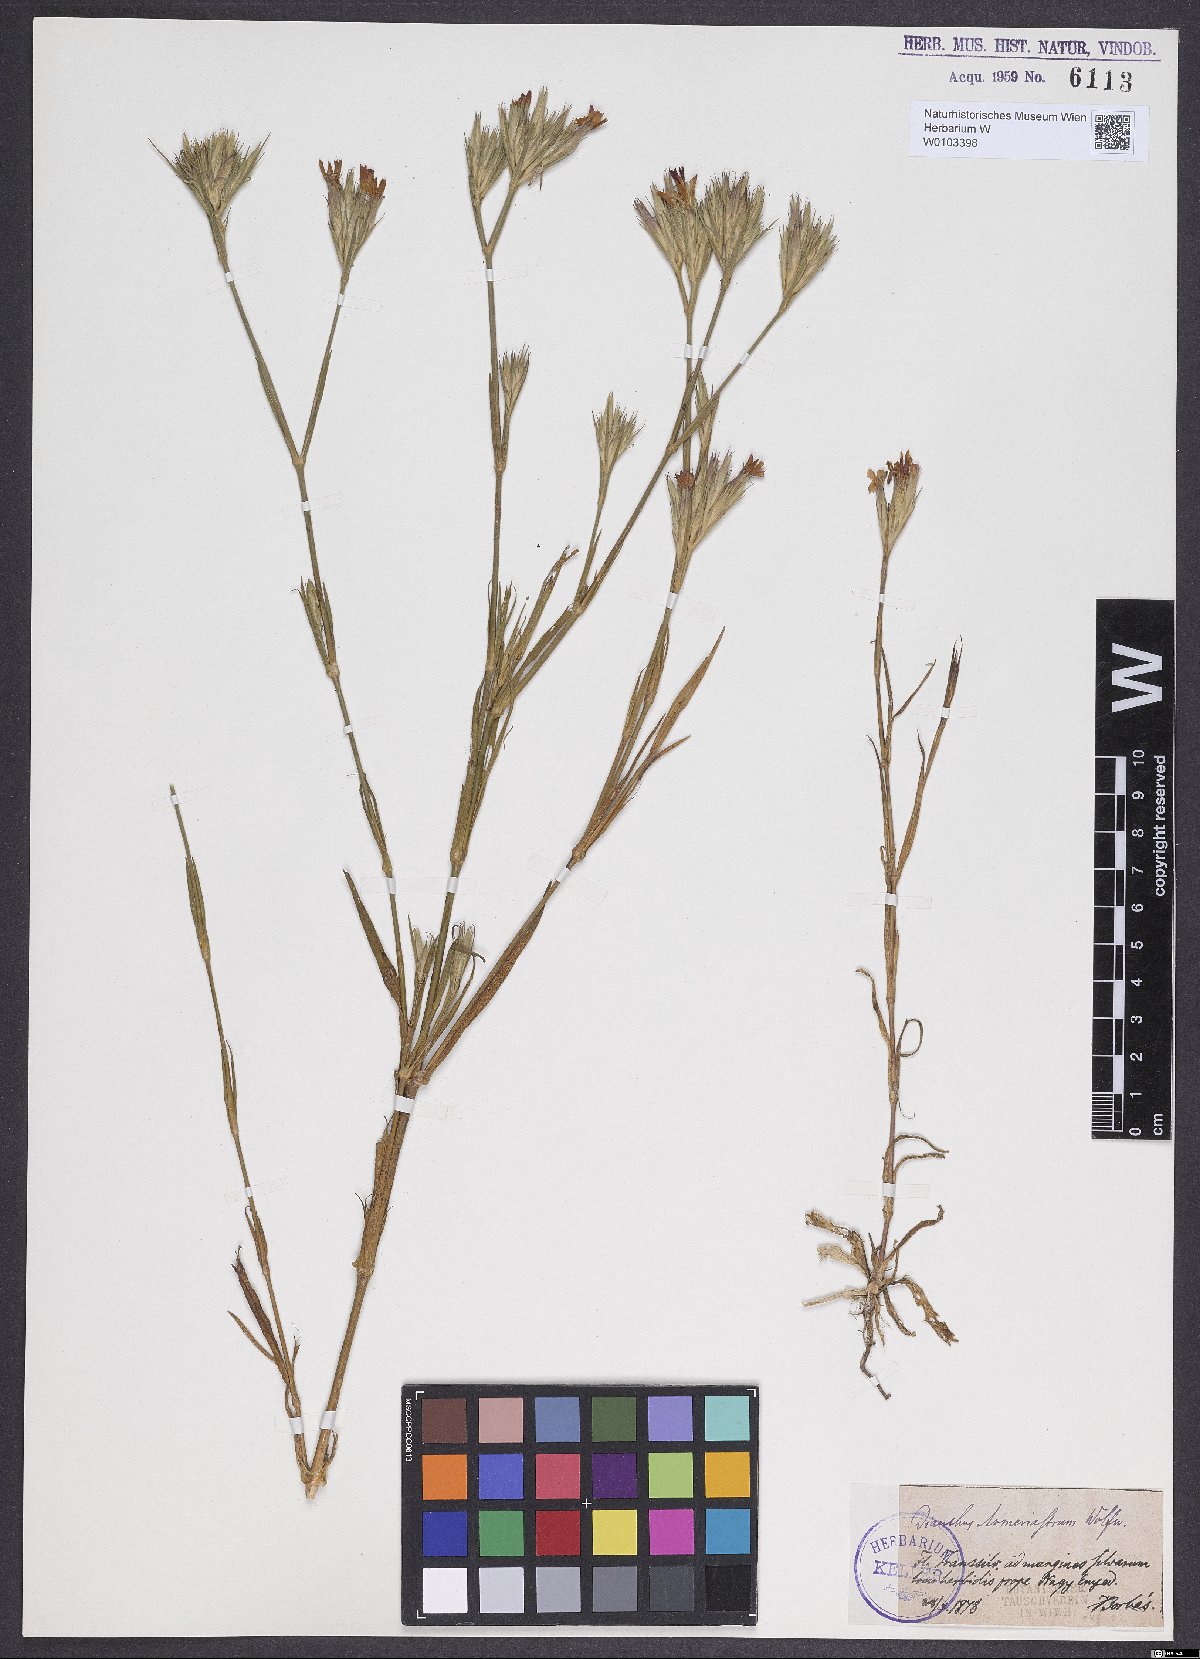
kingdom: Plantae
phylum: Tracheophyta
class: Magnoliopsida
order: Caryophyllales
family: Caryophyllaceae
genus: Dianthus
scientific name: Dianthus corymbosus
